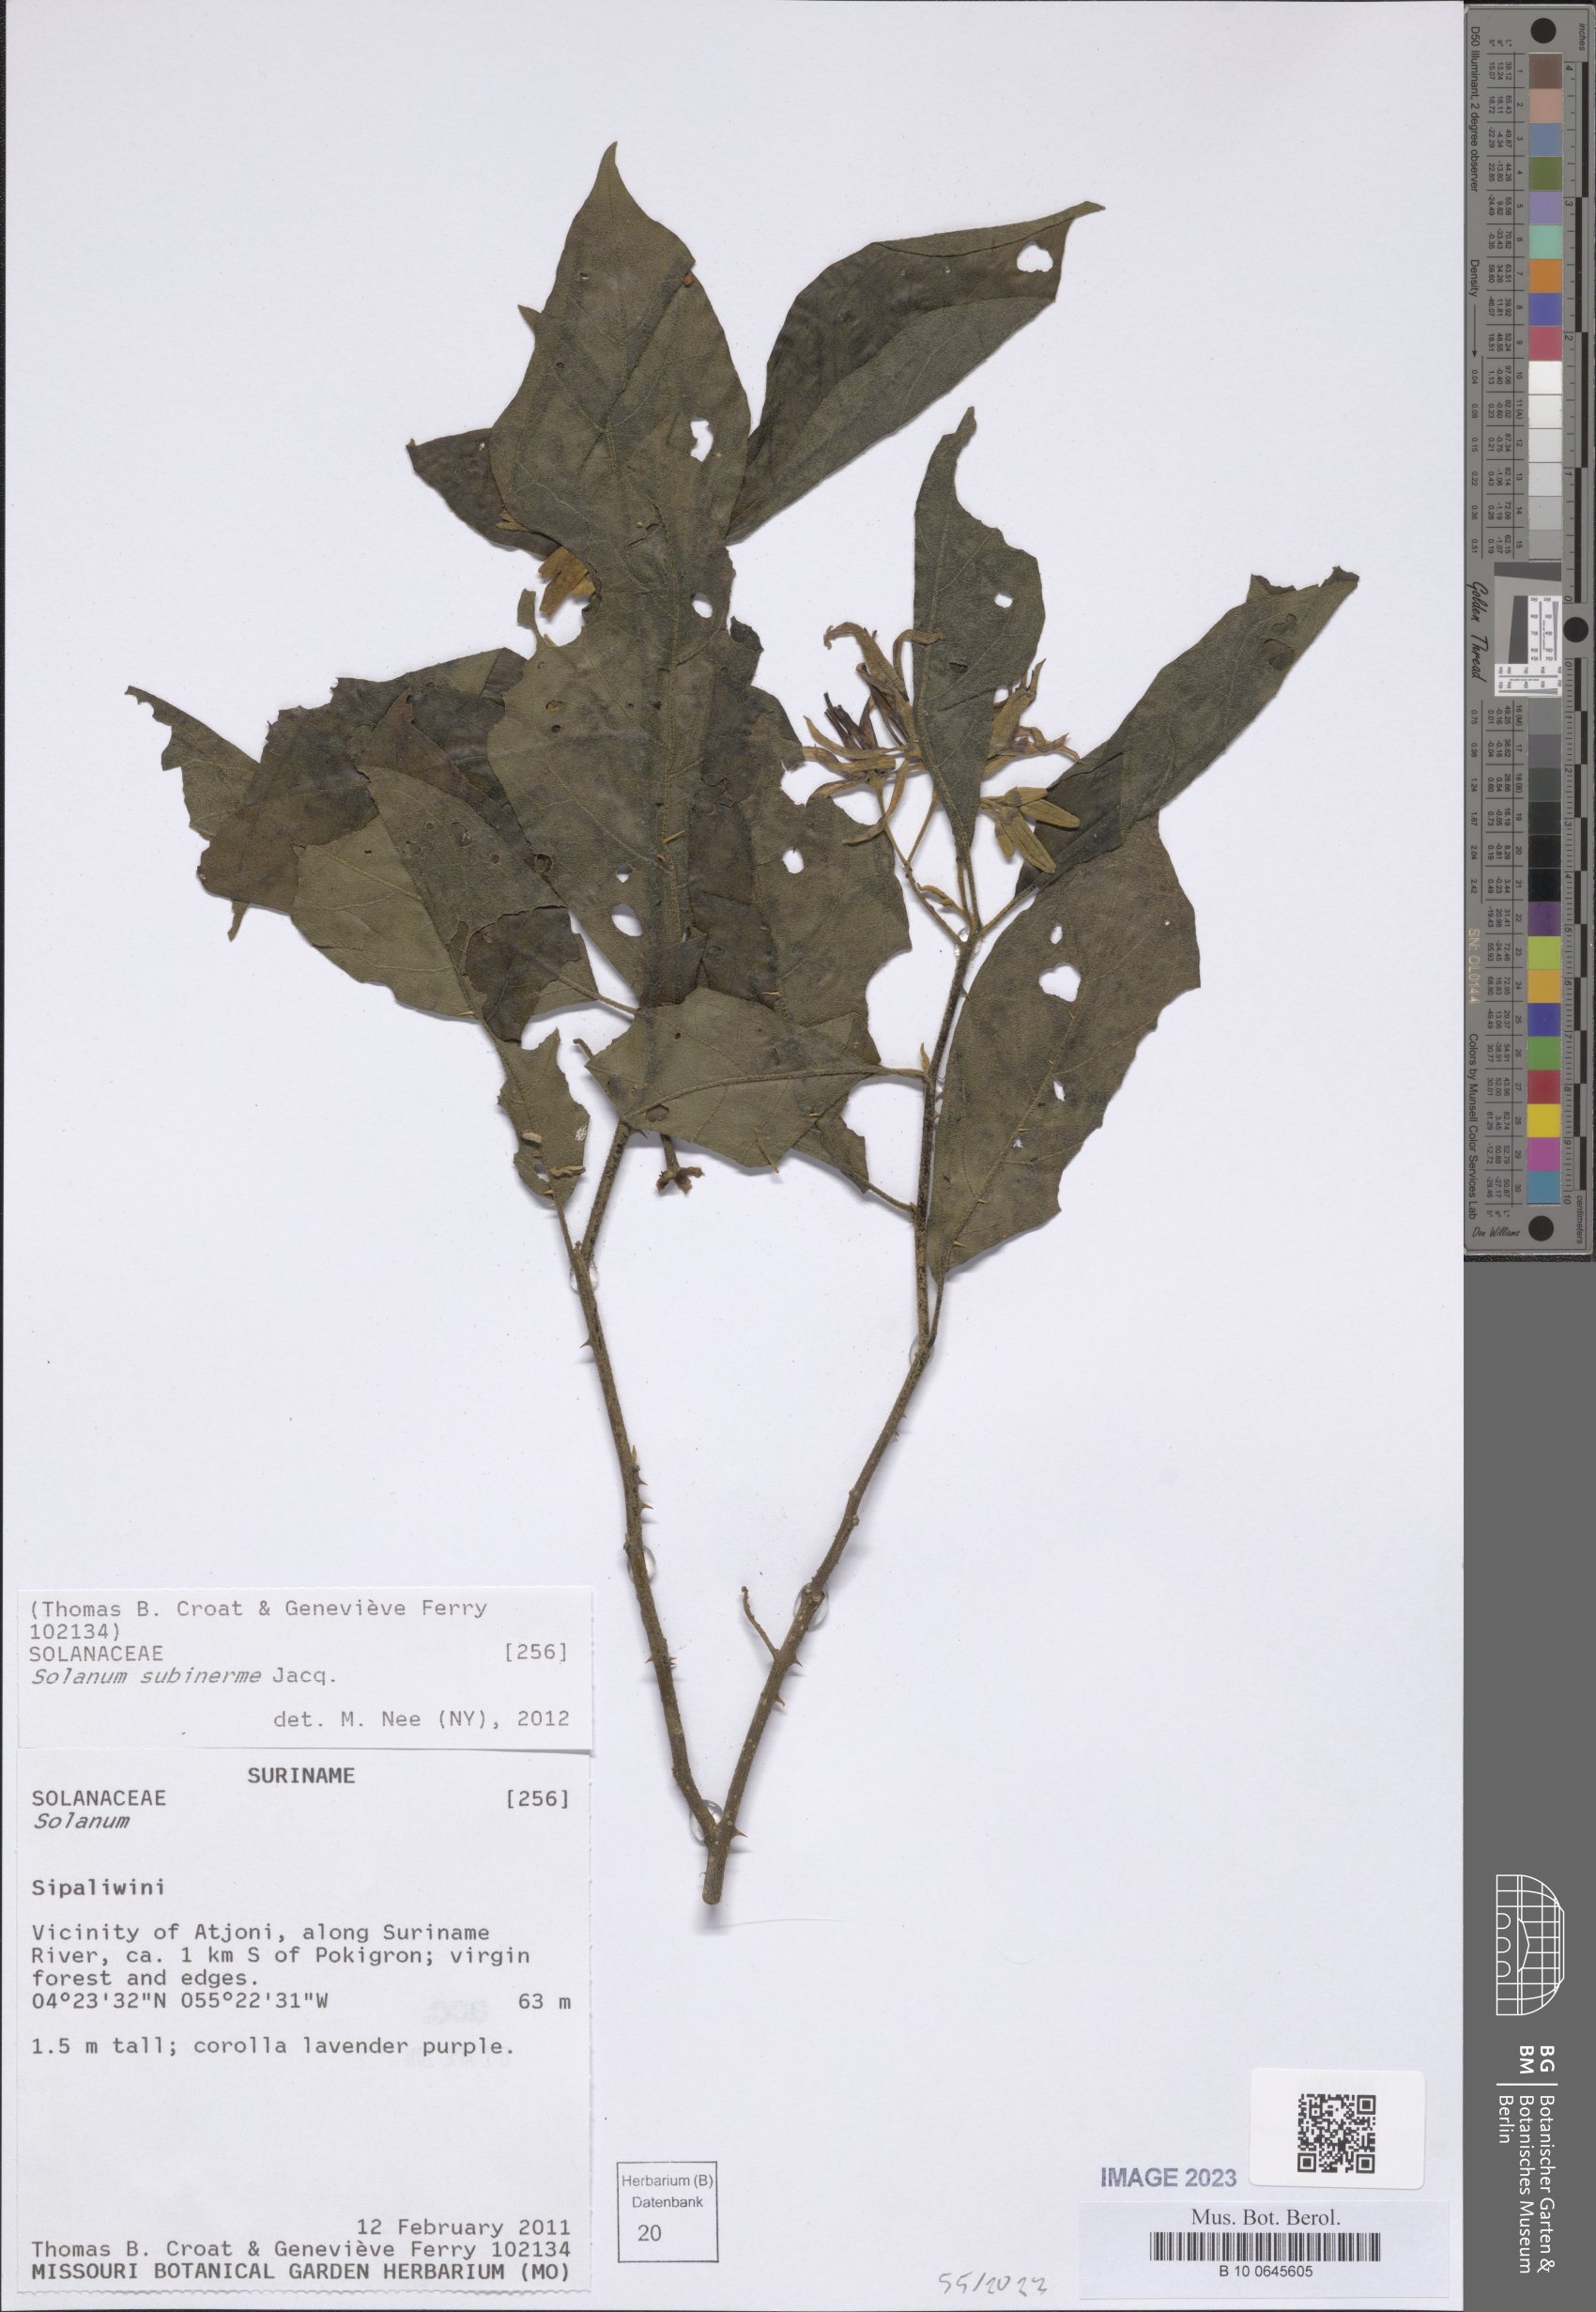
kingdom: Plantae
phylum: Tracheophyta
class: Magnoliopsida
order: Solanales
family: Solanaceae
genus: Solanum
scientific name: Solanum subinerme
